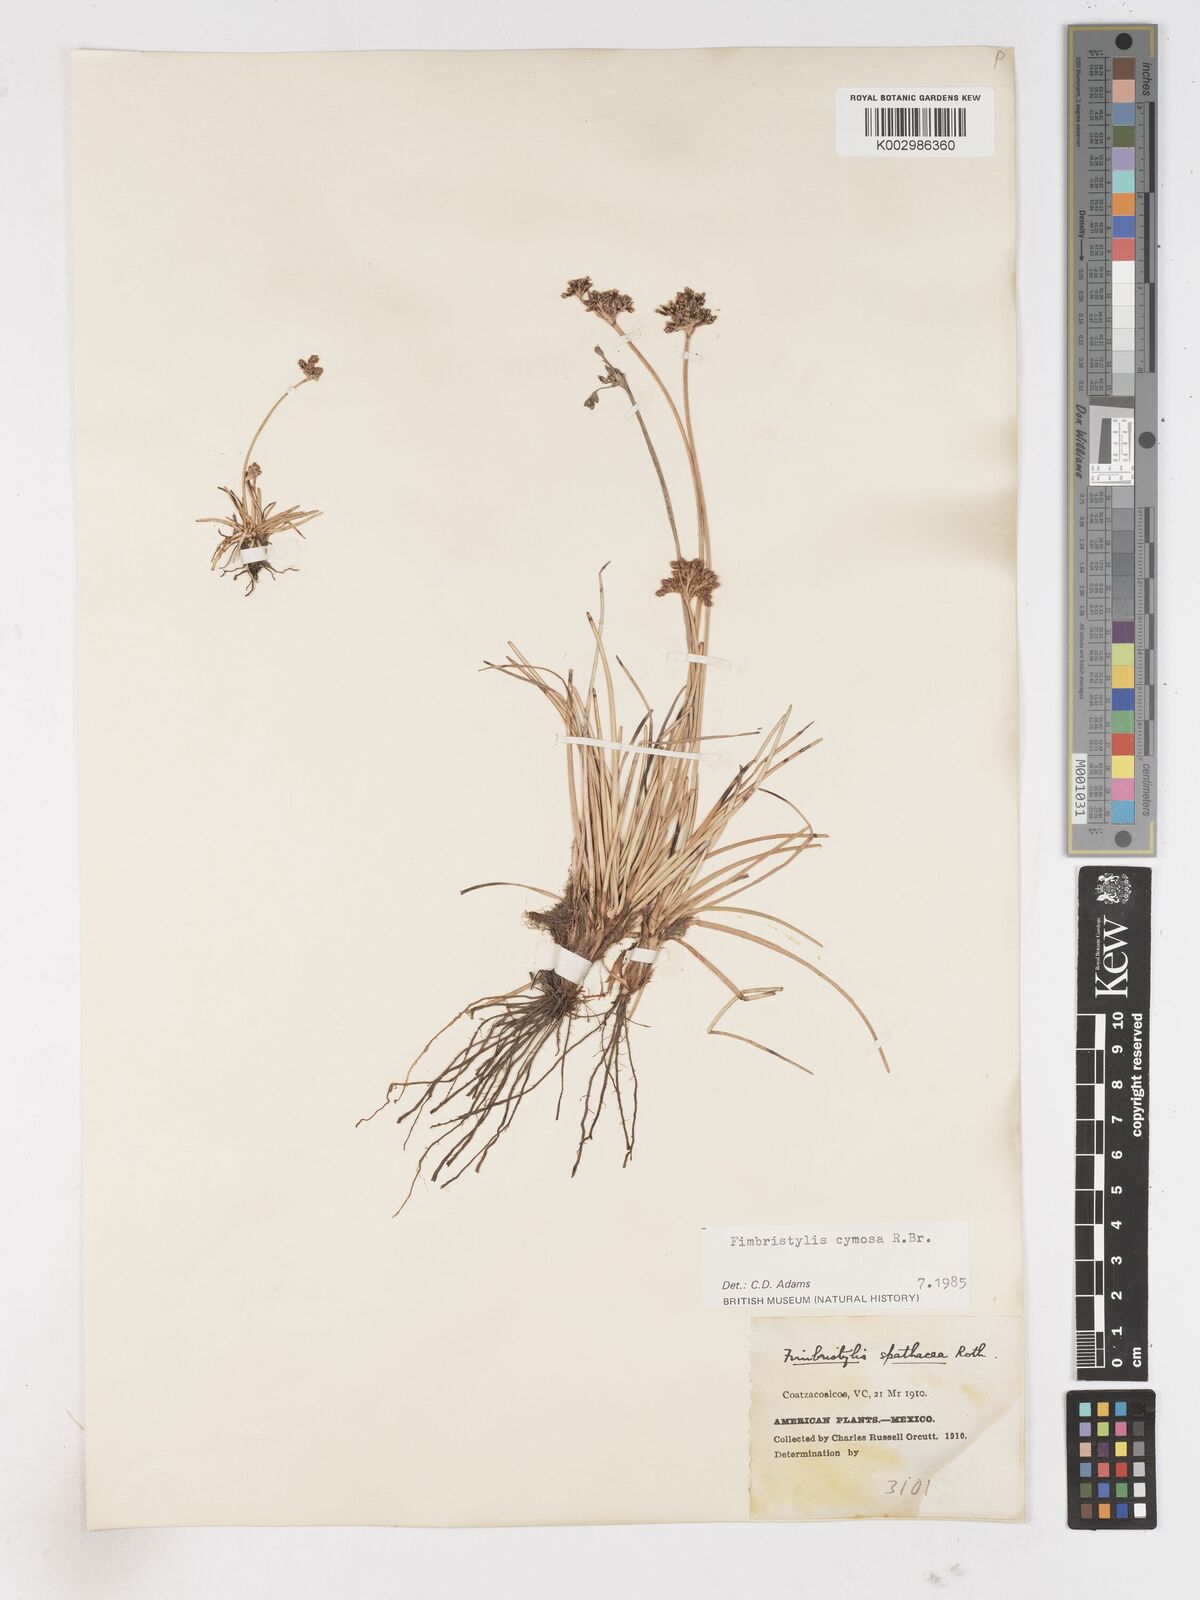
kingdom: Plantae
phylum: Tracheophyta
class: Liliopsida
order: Poales
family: Cyperaceae
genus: Fimbristylis
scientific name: Fimbristylis cymosa
